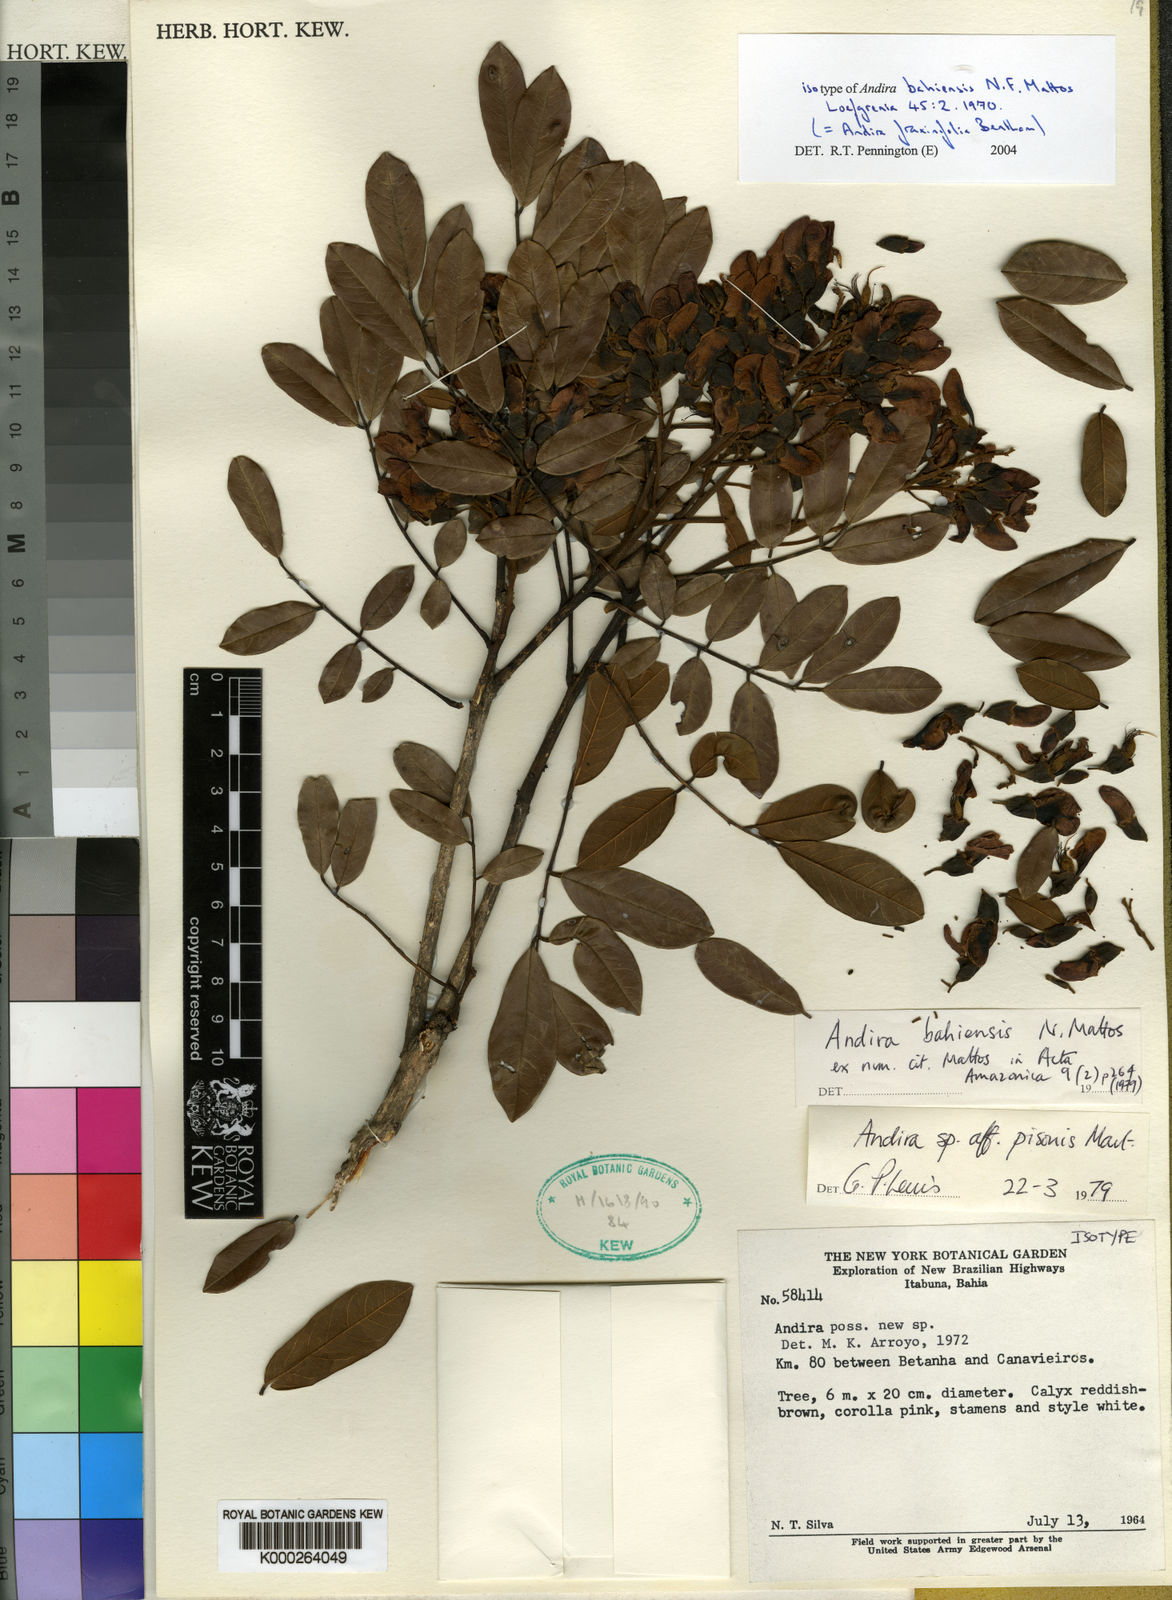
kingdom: Plantae
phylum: Tracheophyta
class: Magnoliopsida
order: Fabales
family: Fabaceae
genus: Andira
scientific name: Andira fraxinifolia
